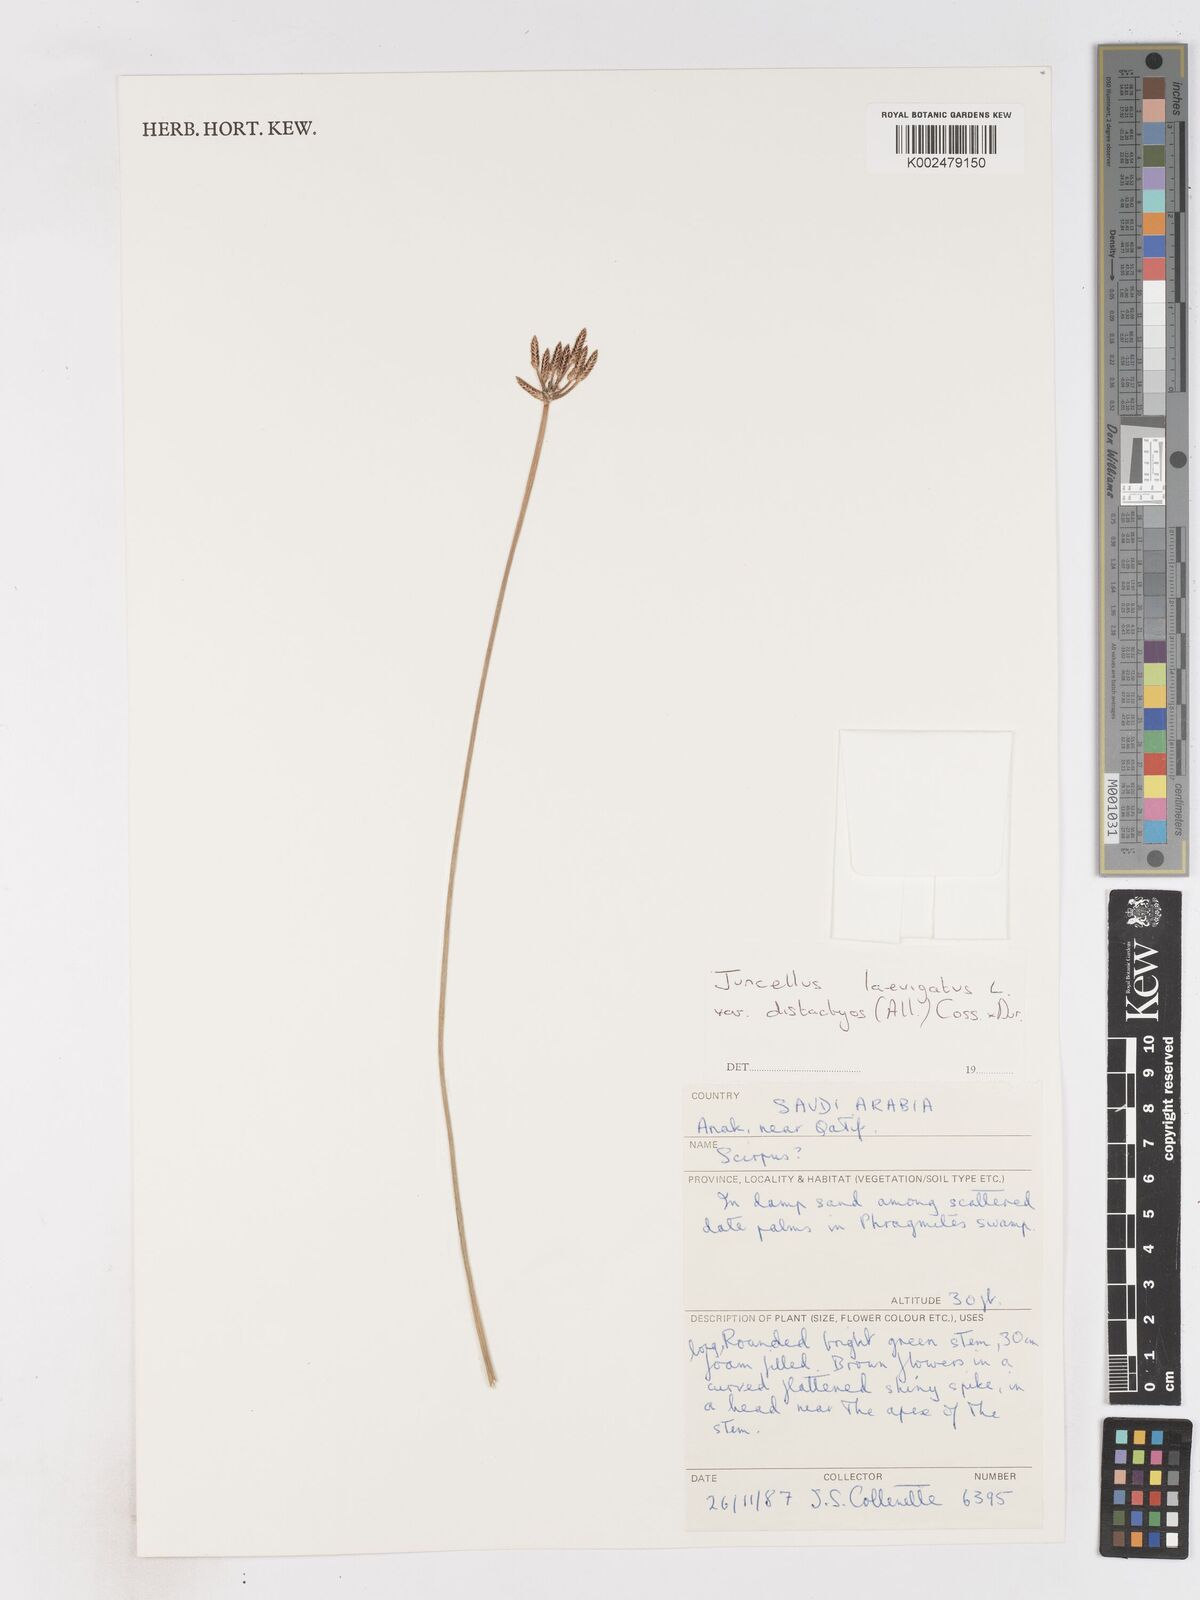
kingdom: Plantae
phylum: Tracheophyta
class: Liliopsida
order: Poales
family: Cyperaceae
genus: Cyperus
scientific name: Cyperus laevigatus
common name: Smooth flat sedge
